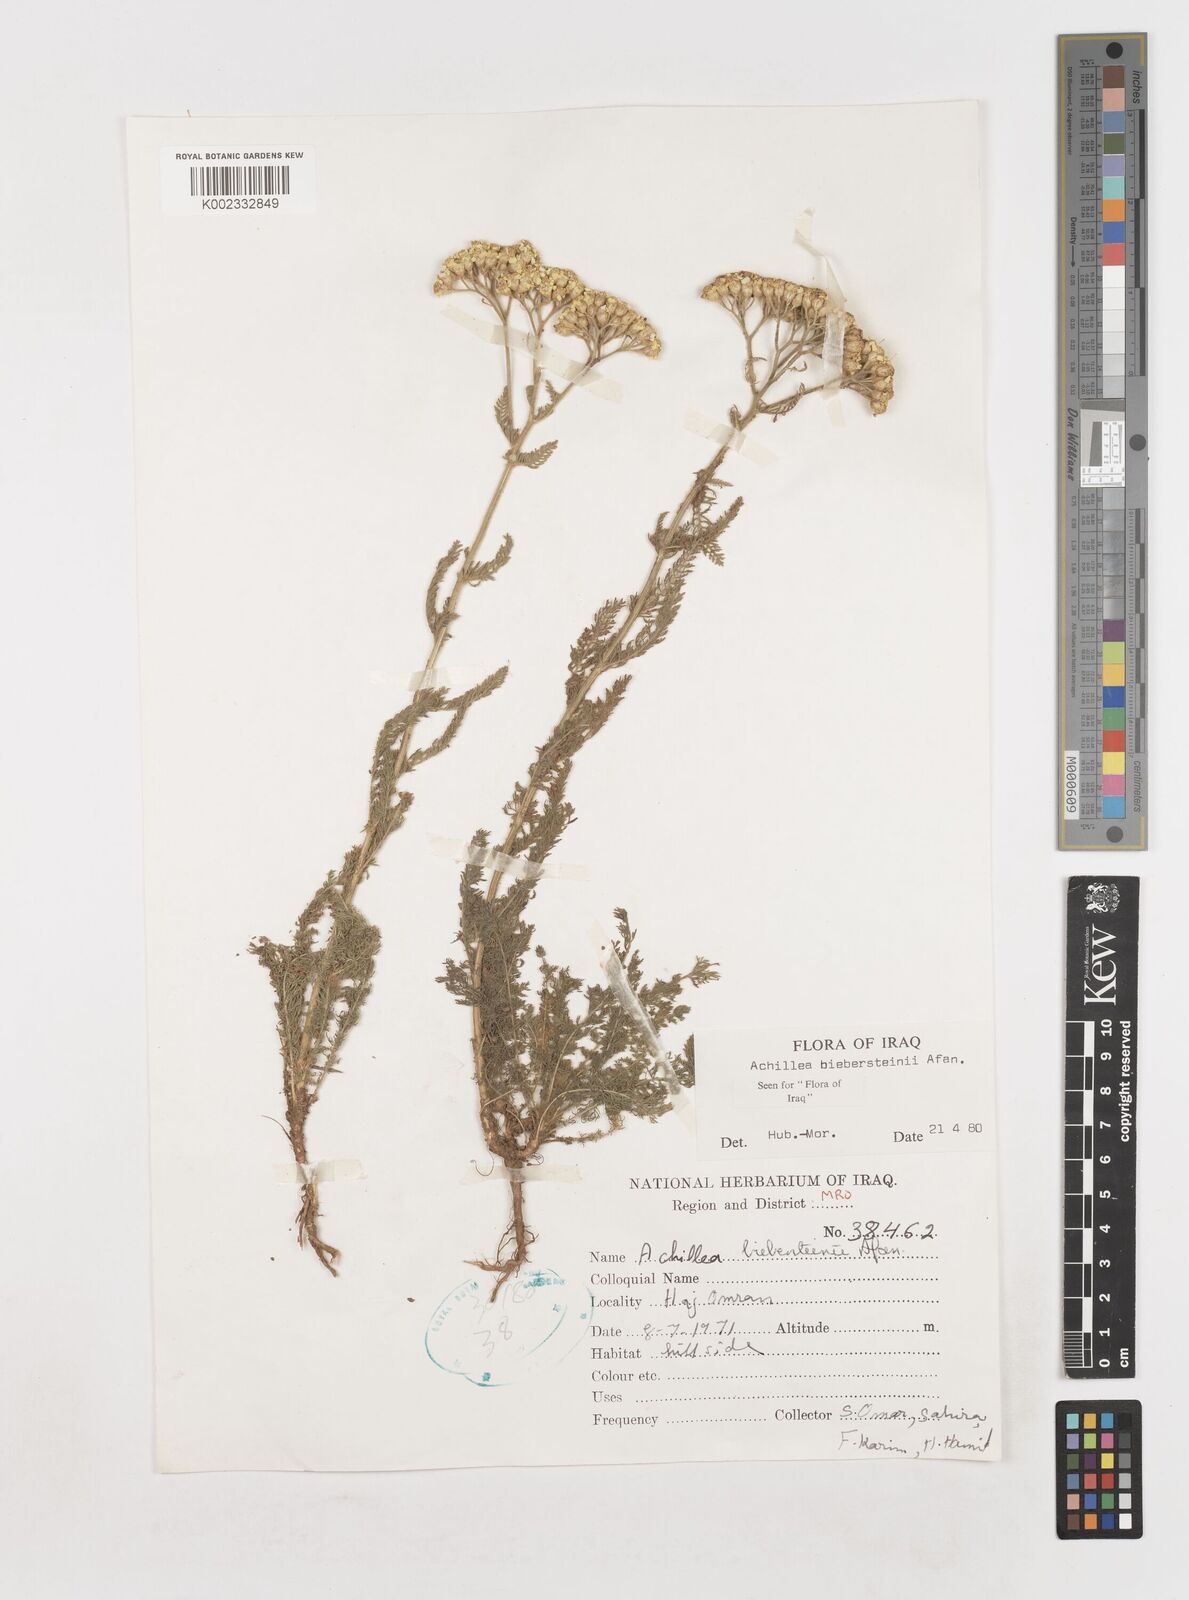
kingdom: Plantae
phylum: Tracheophyta
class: Magnoliopsida
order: Asterales
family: Asteraceae
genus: Achillea
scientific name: Achillea arabica
